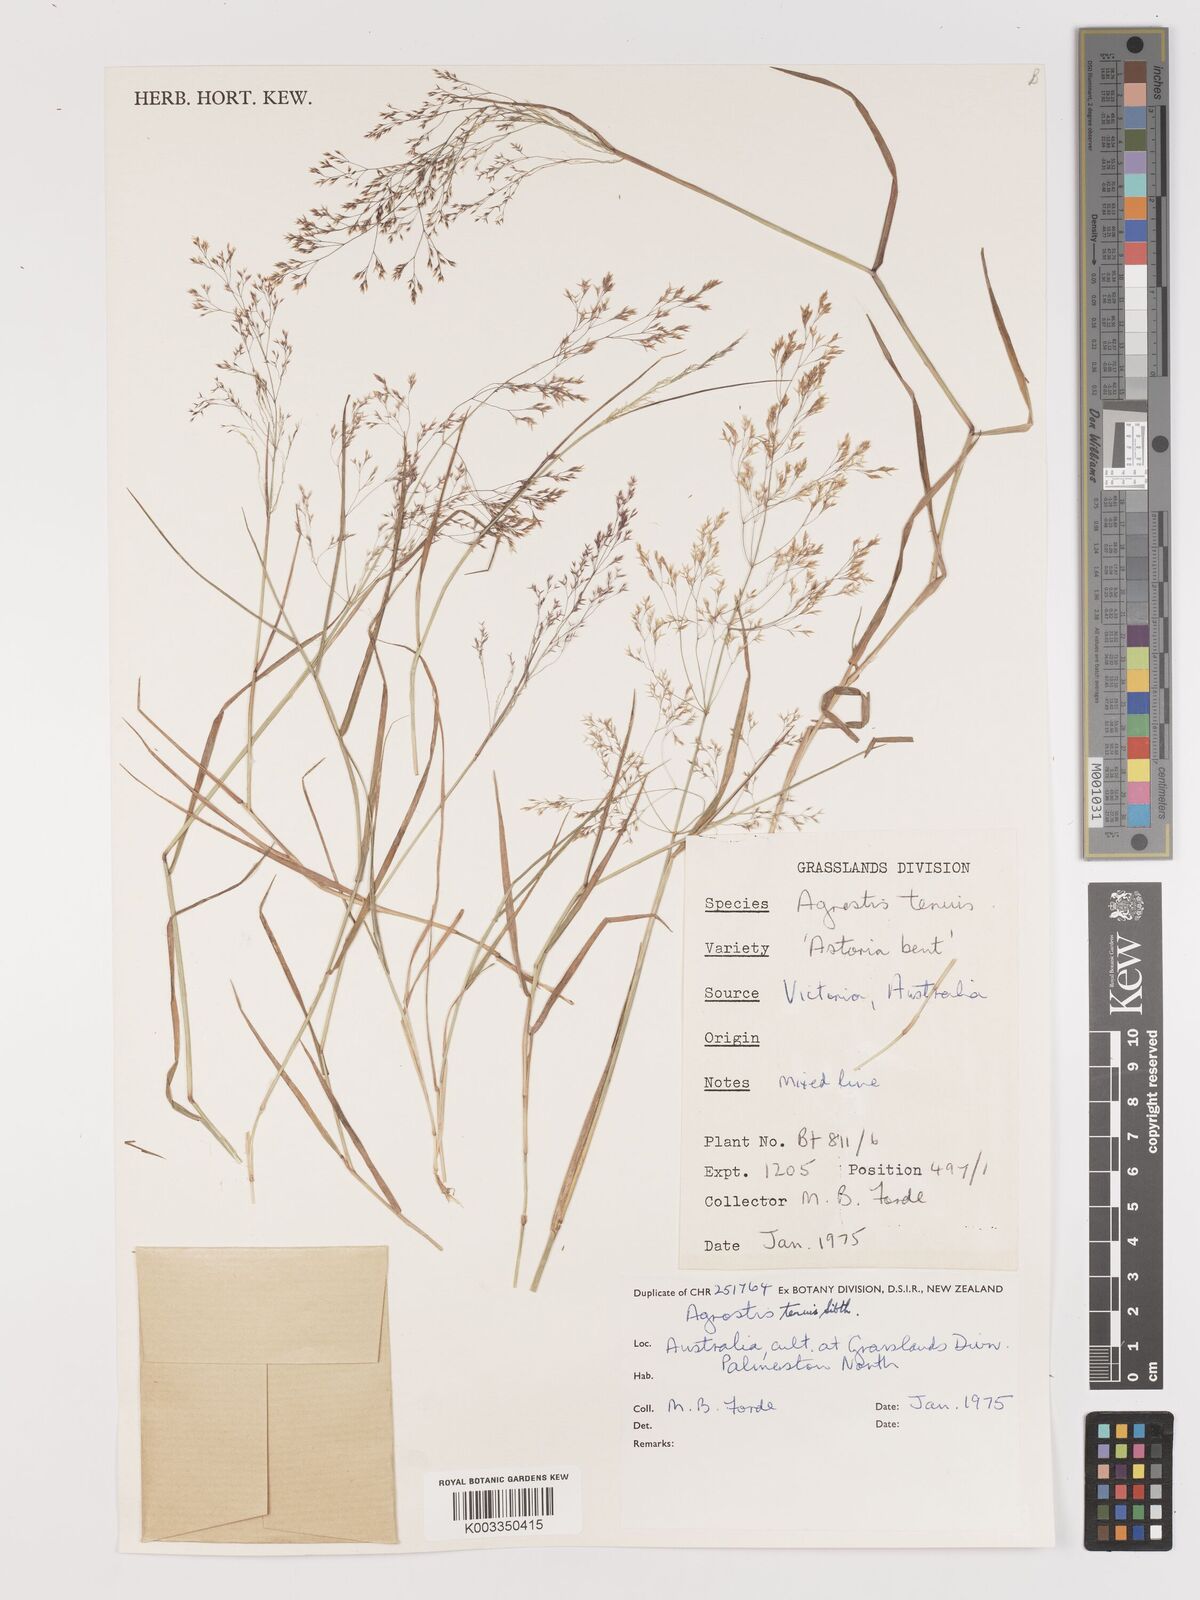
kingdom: Plantae
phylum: Tracheophyta
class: Liliopsida
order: Poales
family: Poaceae
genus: Agrostis
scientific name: Agrostis capillaris
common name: Colonial bentgrass
